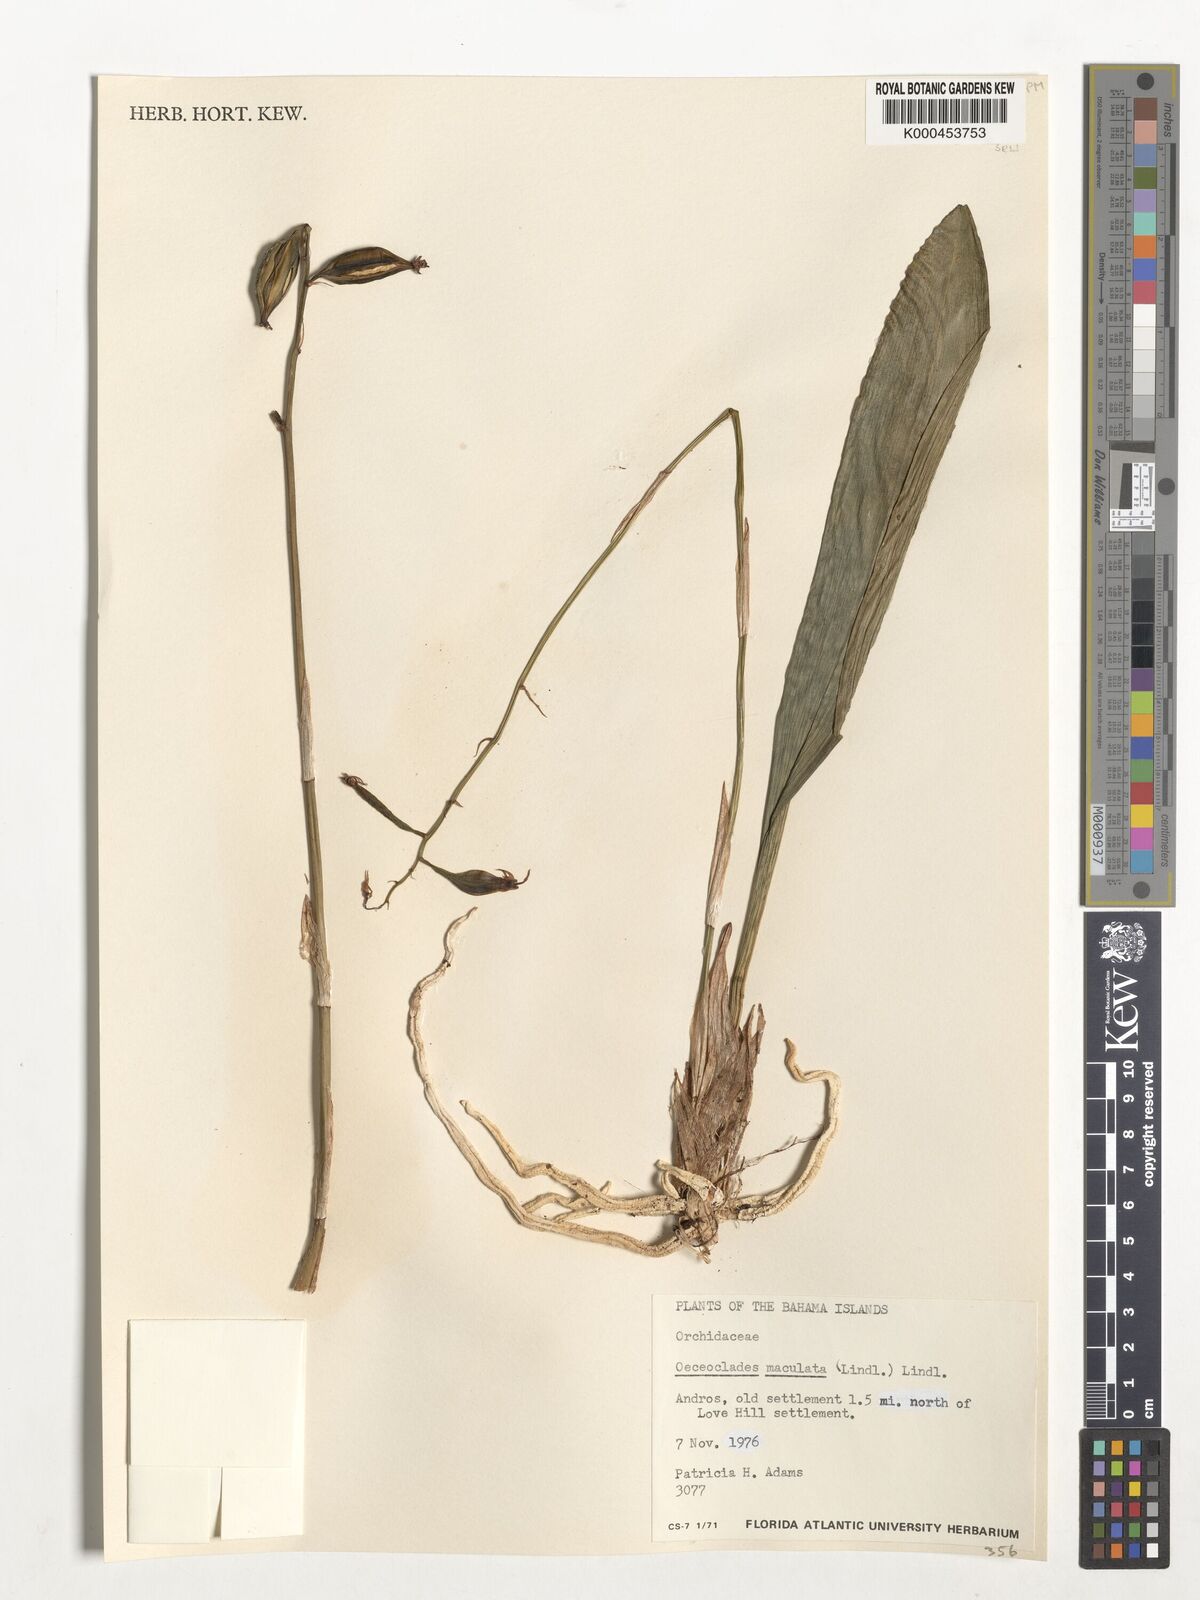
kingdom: Plantae
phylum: Tracheophyta
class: Liliopsida
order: Asparagales
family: Orchidaceae
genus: Eulophia
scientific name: Eulophia maculata
